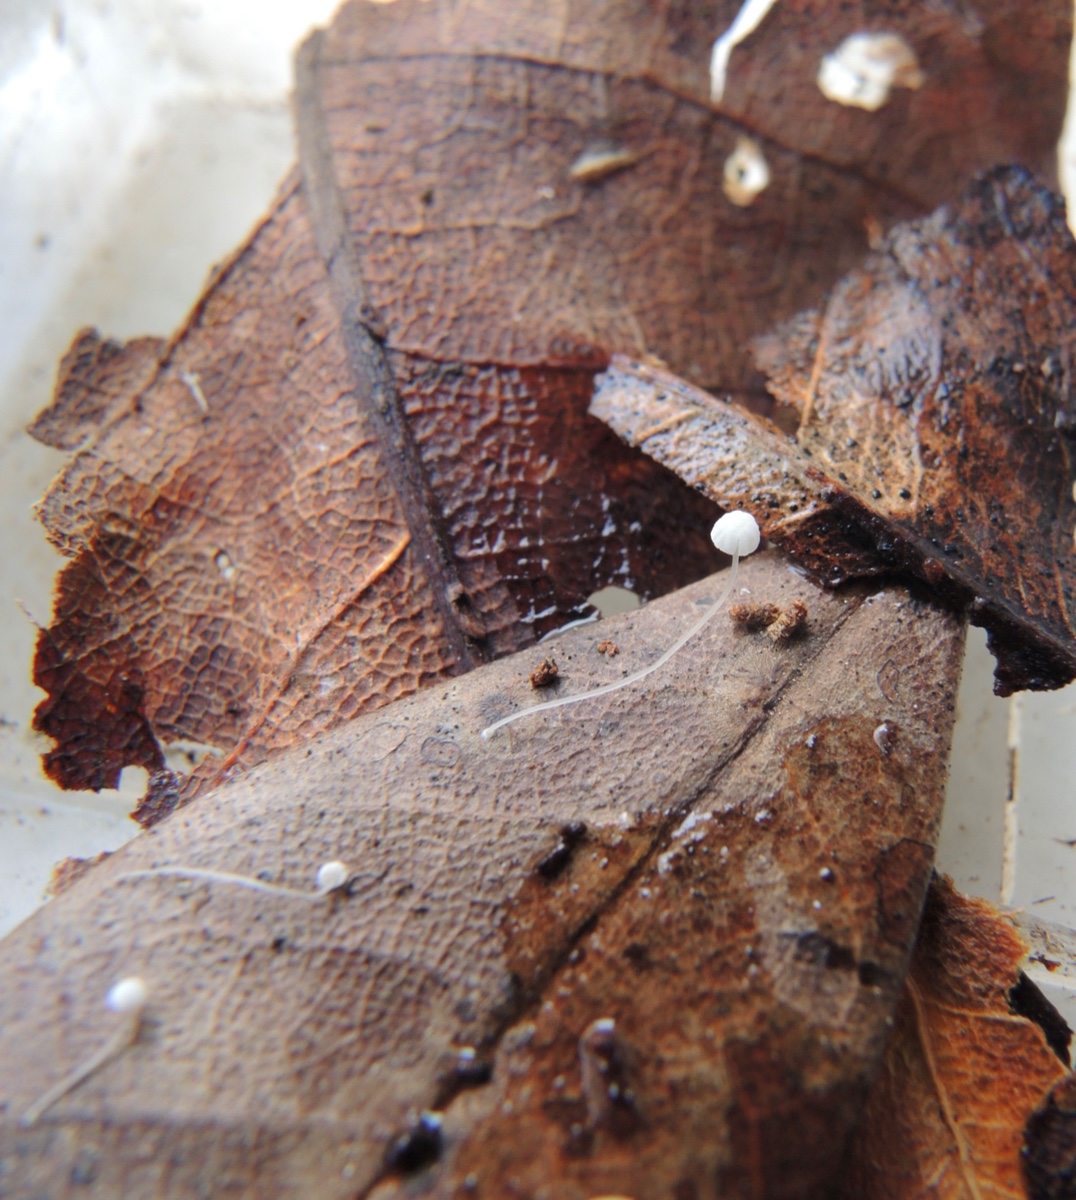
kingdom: Fungi
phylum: Basidiomycota
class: Agaricomycetes
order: Agaricales
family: Mycenaceae
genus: Mycena
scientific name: Mycena
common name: huesvamp
